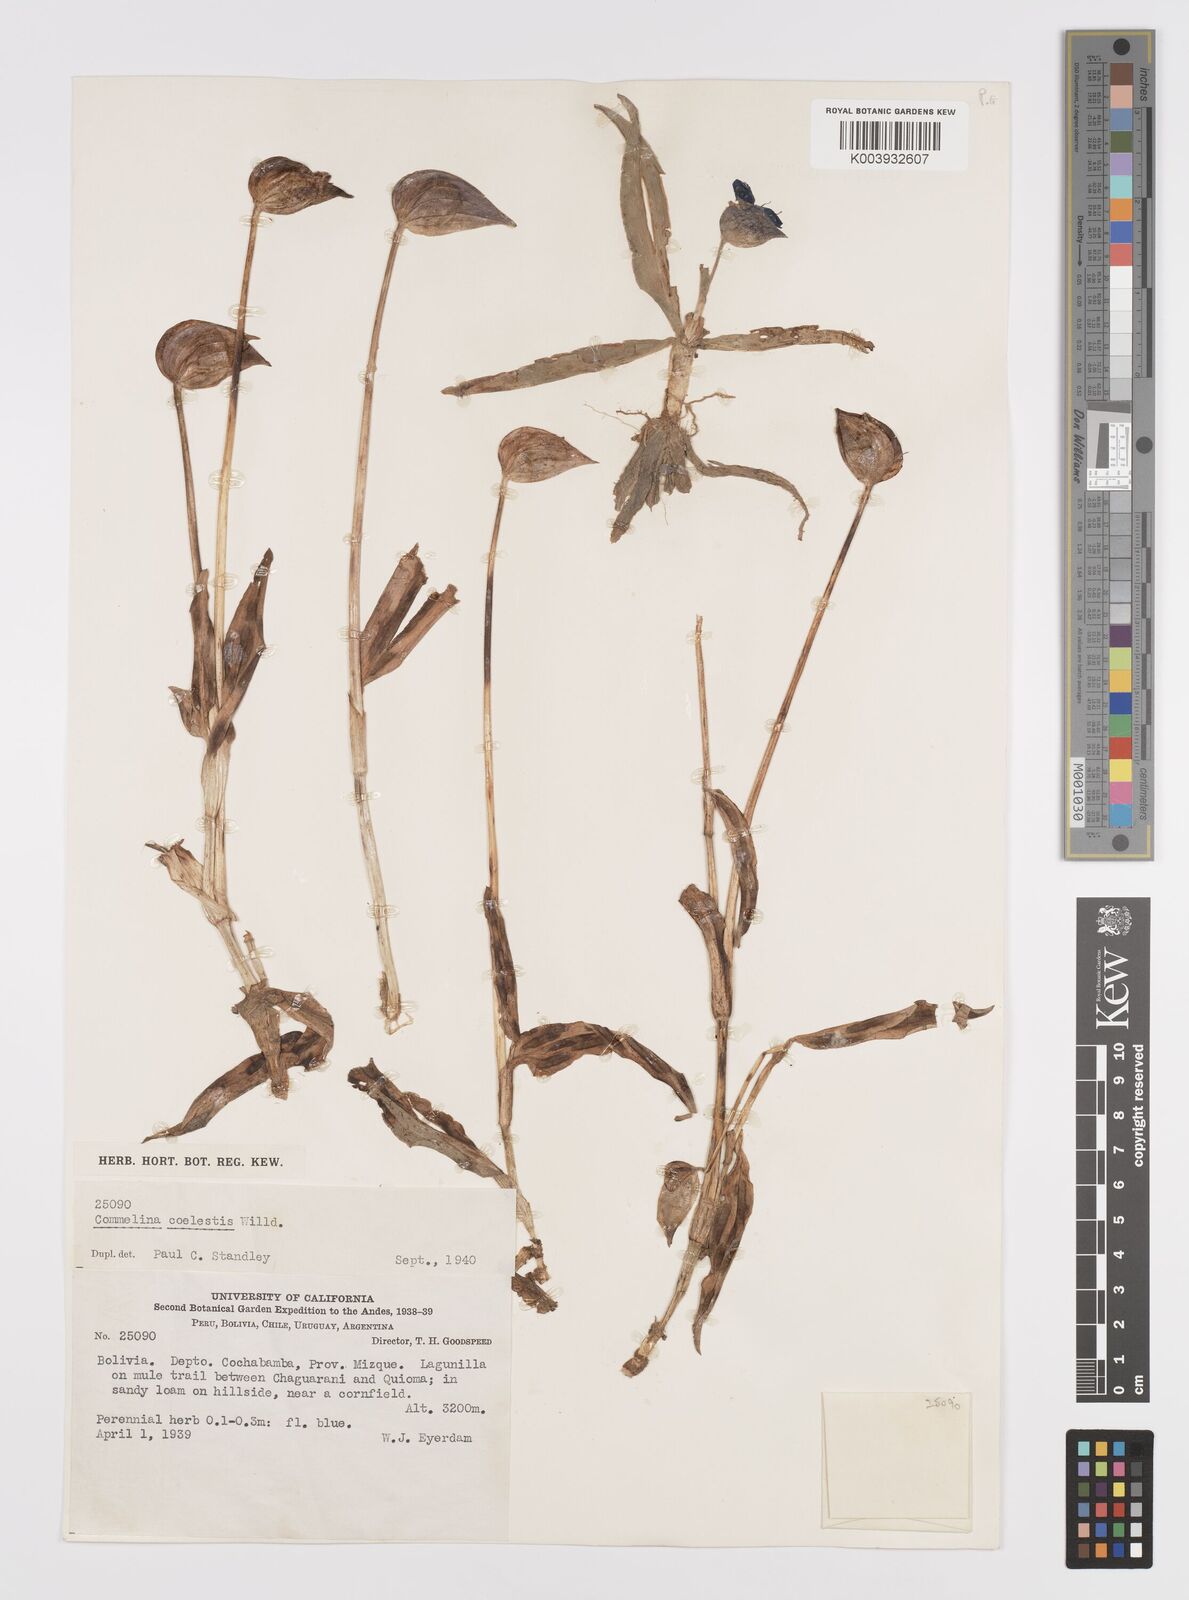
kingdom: Plantae
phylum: Tracheophyta
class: Liliopsida
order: Commelinales
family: Commelinaceae
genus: Commelina
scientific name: Commelina elliptica
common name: Peruvian spiderwort
